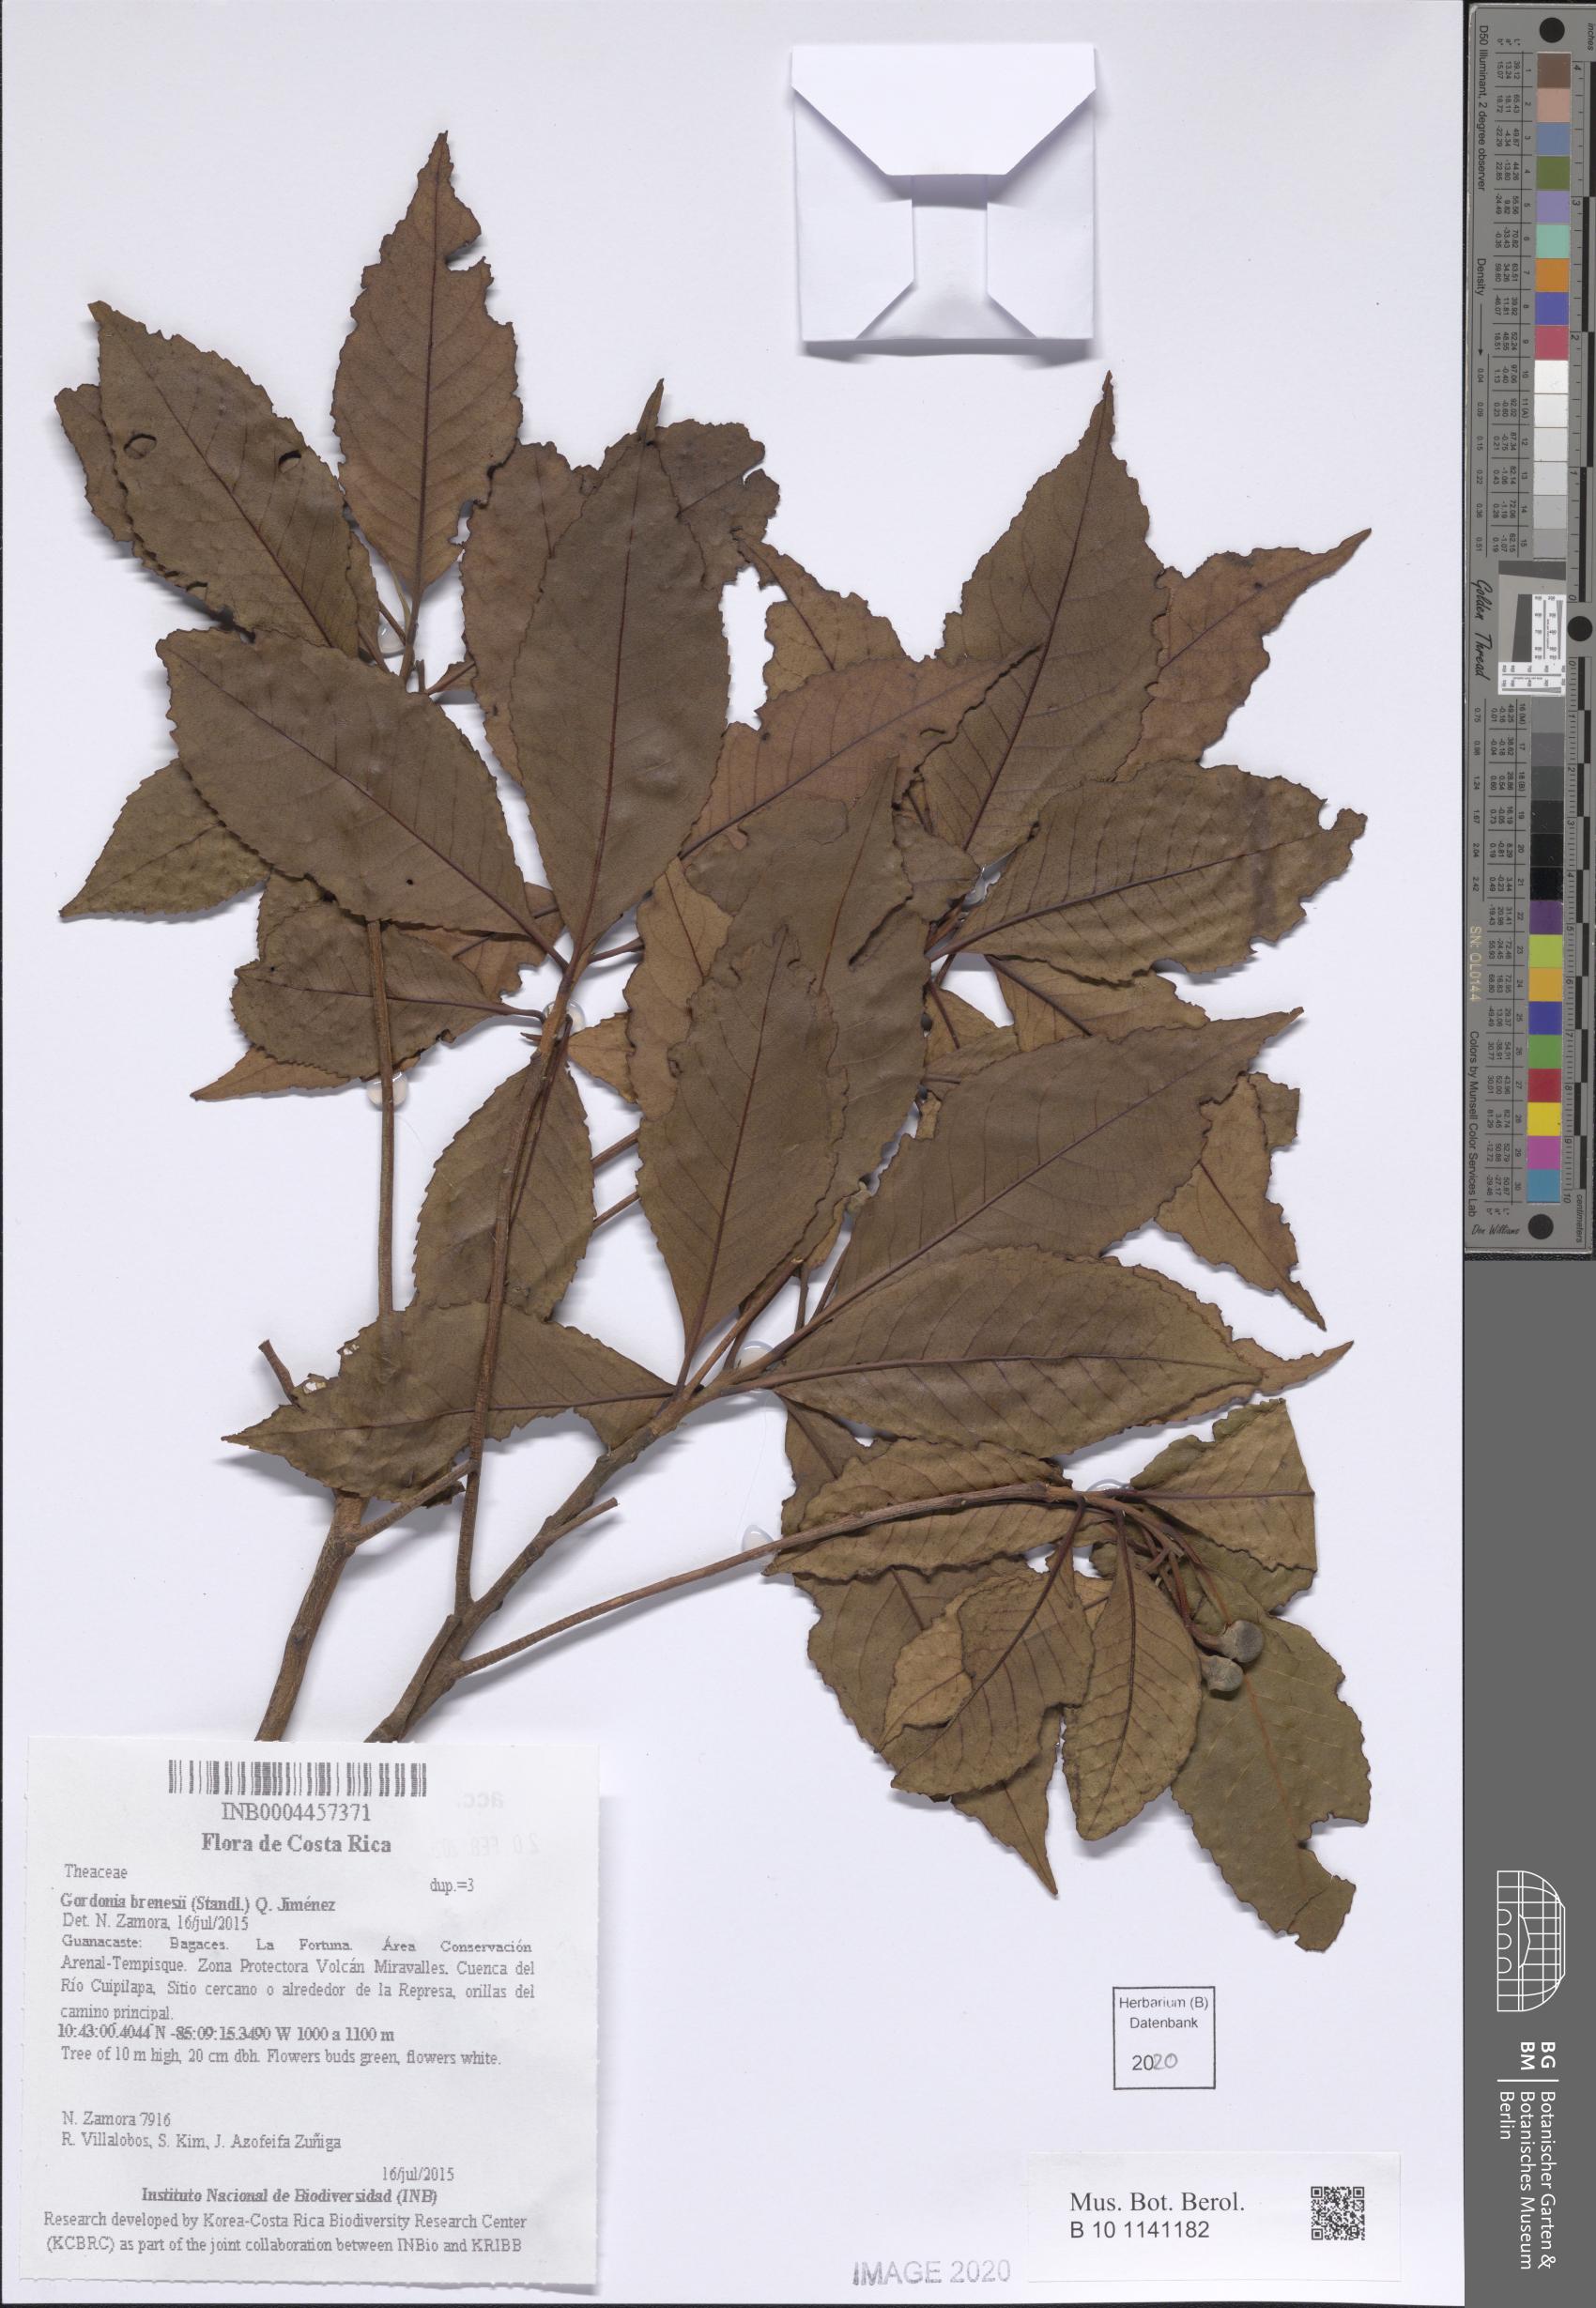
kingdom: Plantae
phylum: Tracheophyta
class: Magnoliopsida
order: Ericales
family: Theaceae
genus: Gordonia
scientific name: Gordonia brenesii
